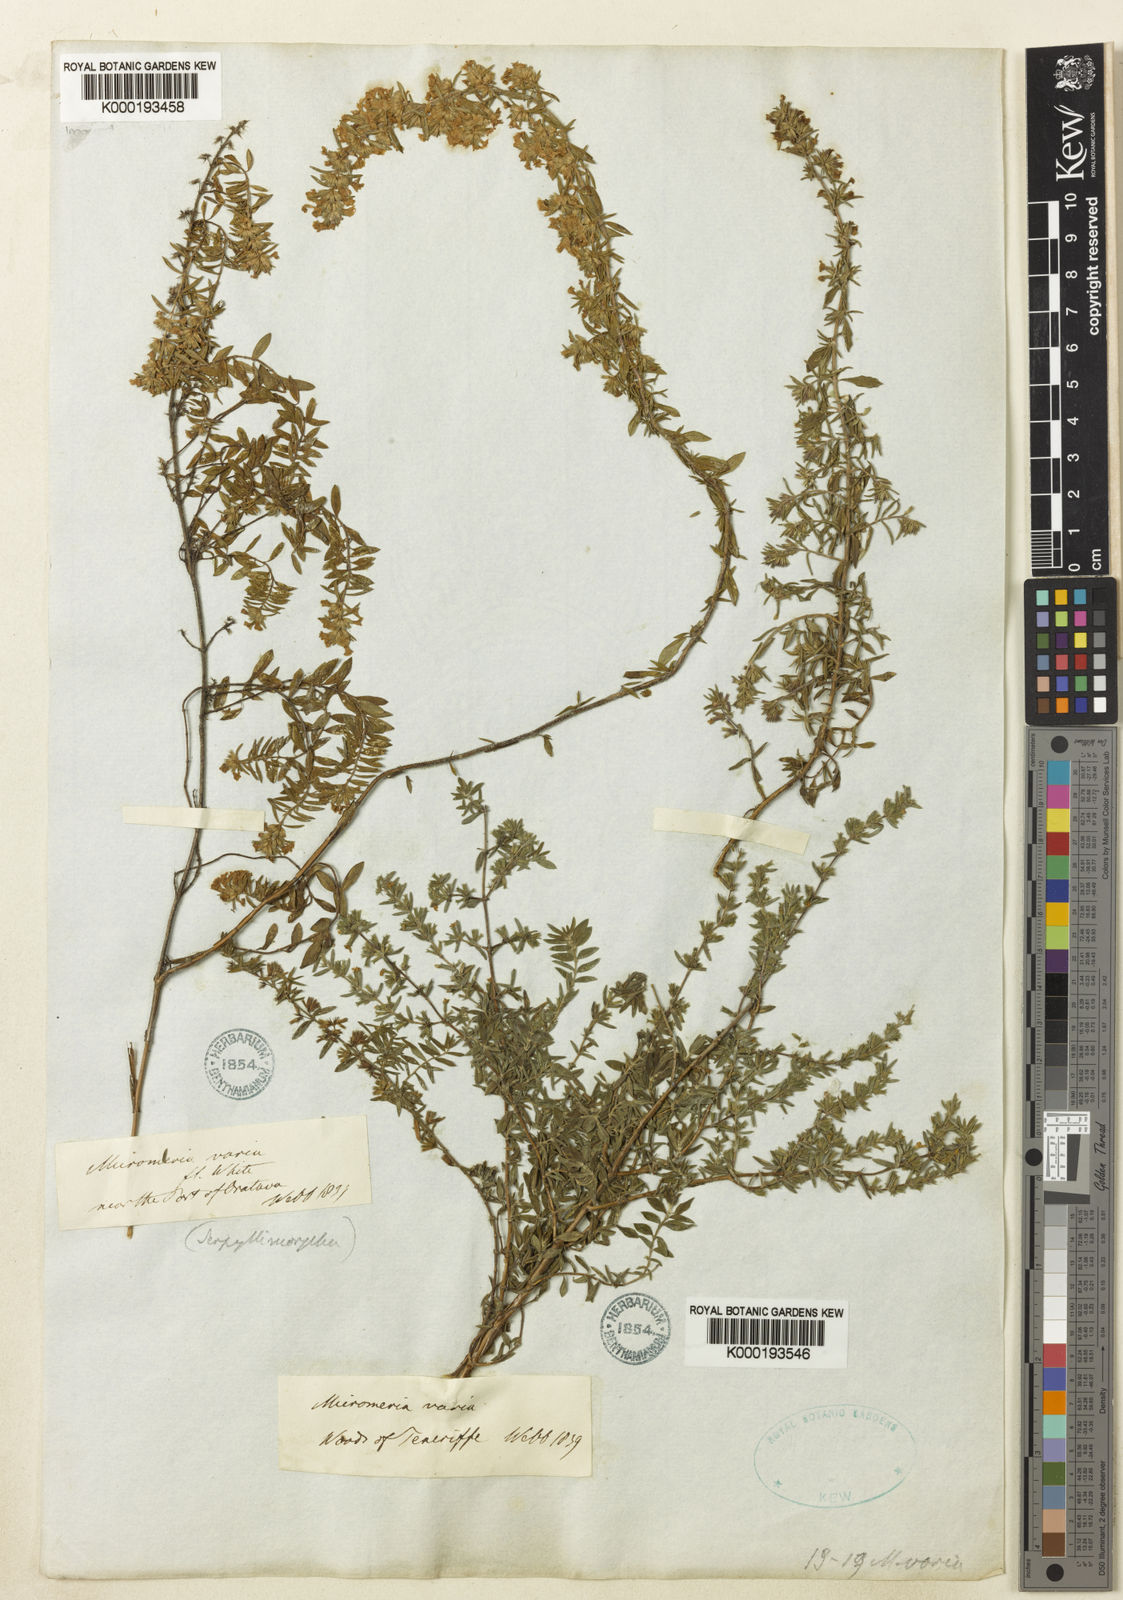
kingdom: Plantae
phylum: Tracheophyta
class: Magnoliopsida
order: Lamiales
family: Lamiaceae
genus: Micromeria
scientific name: Micromeria ericifolia
